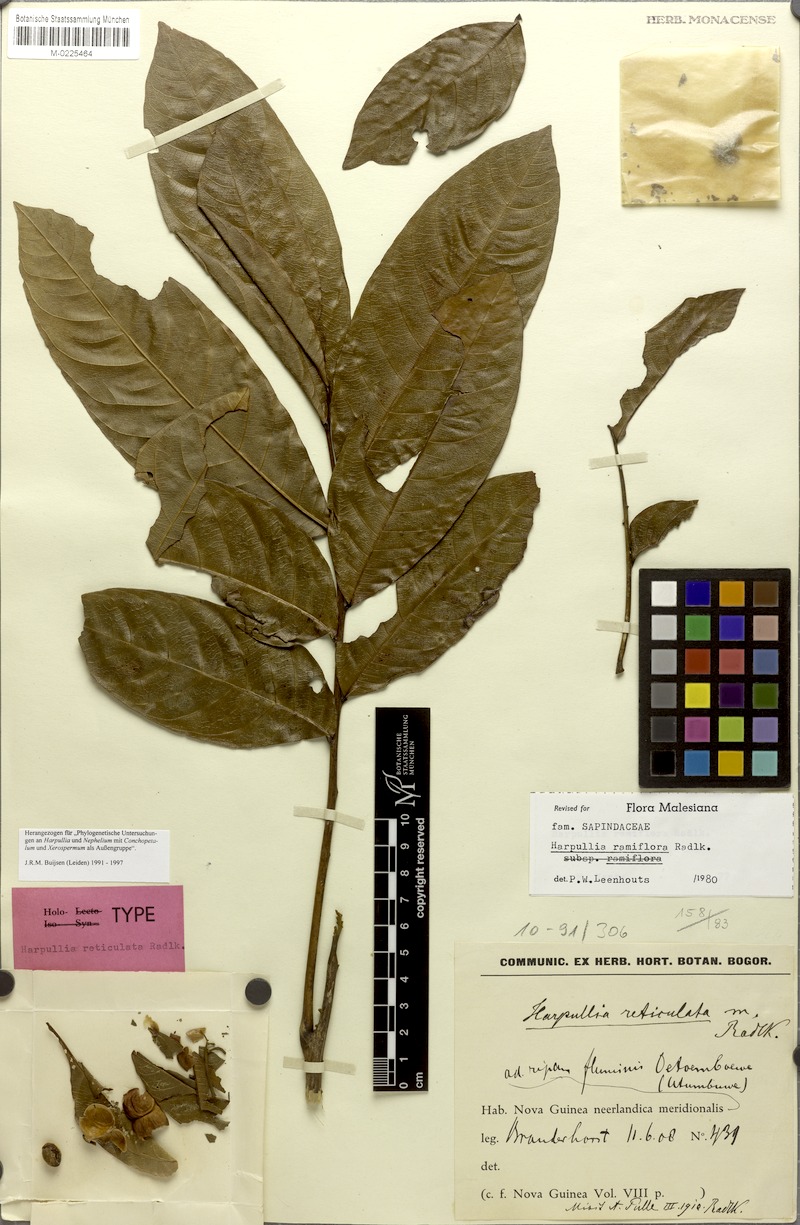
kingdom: Plantae
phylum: Tracheophyta
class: Magnoliopsida
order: Sapindales
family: Sapindaceae
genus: Harpullia
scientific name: Harpullia ramiflora
